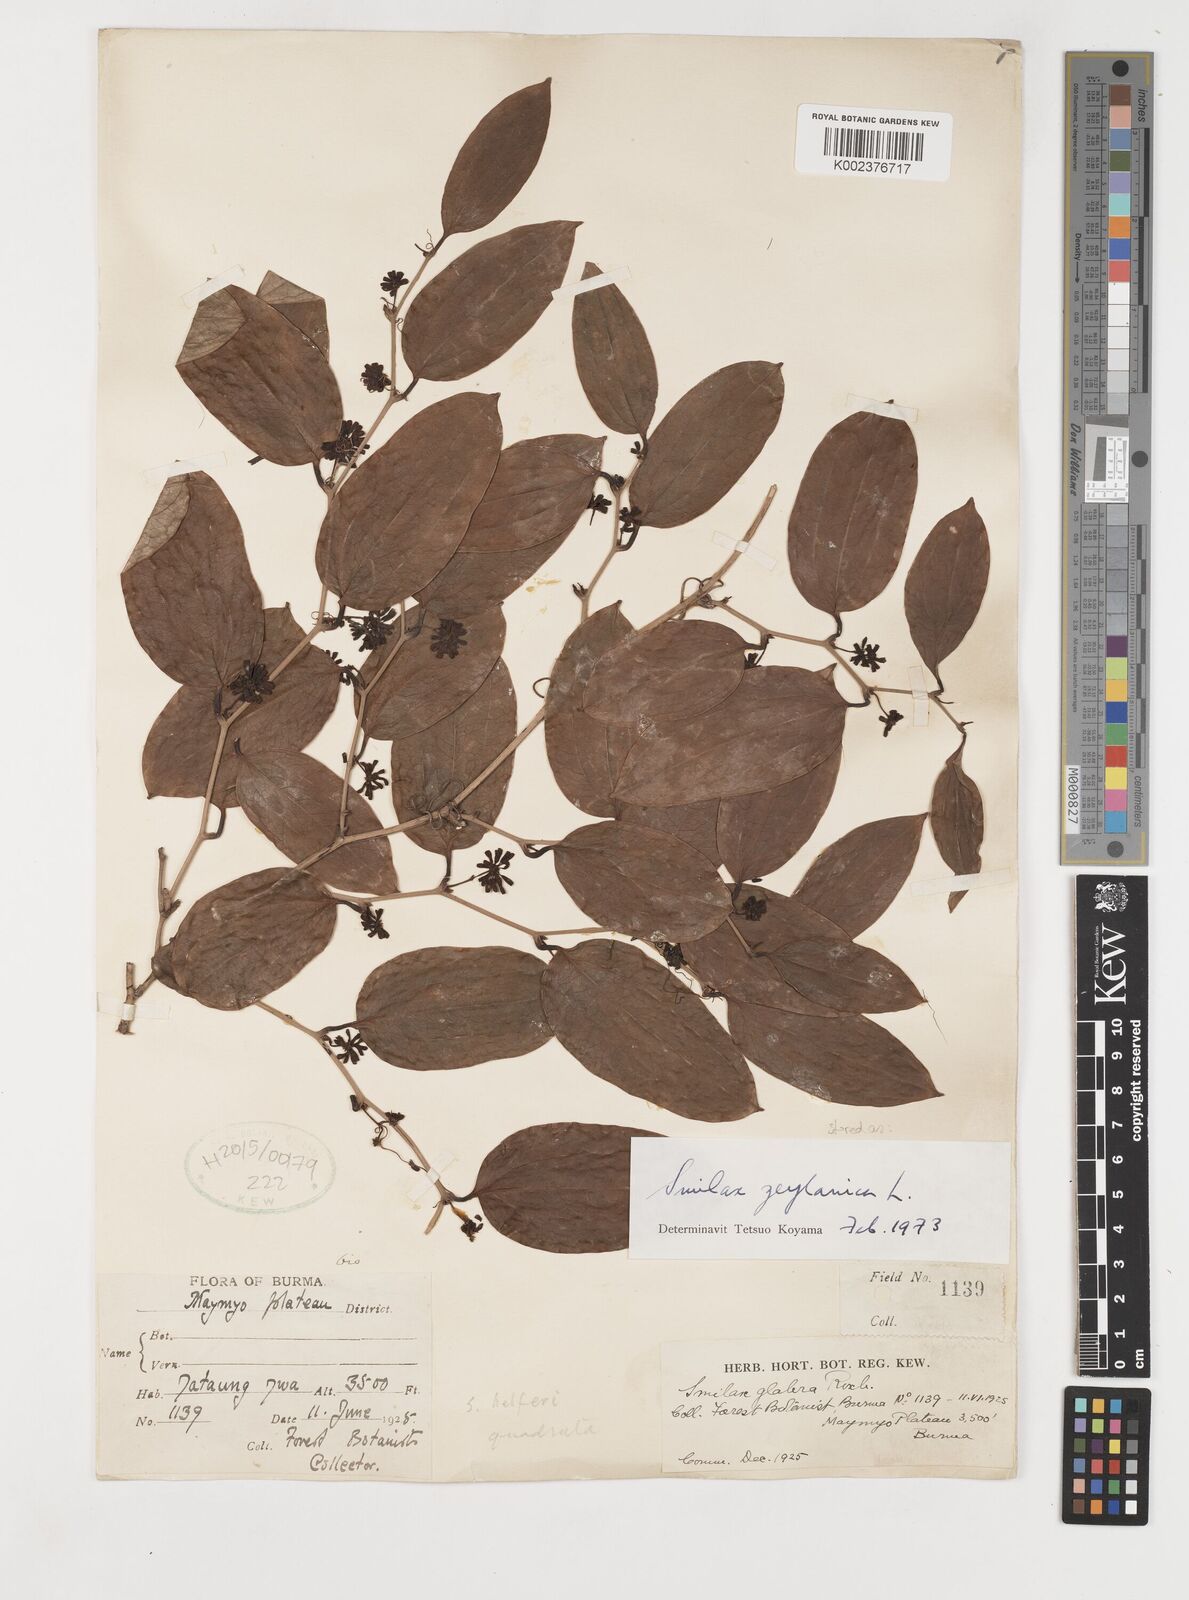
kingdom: Plantae
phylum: Tracheophyta
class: Liliopsida
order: Liliales
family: Smilacaceae
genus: Smilax
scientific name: Smilax zeylanica
